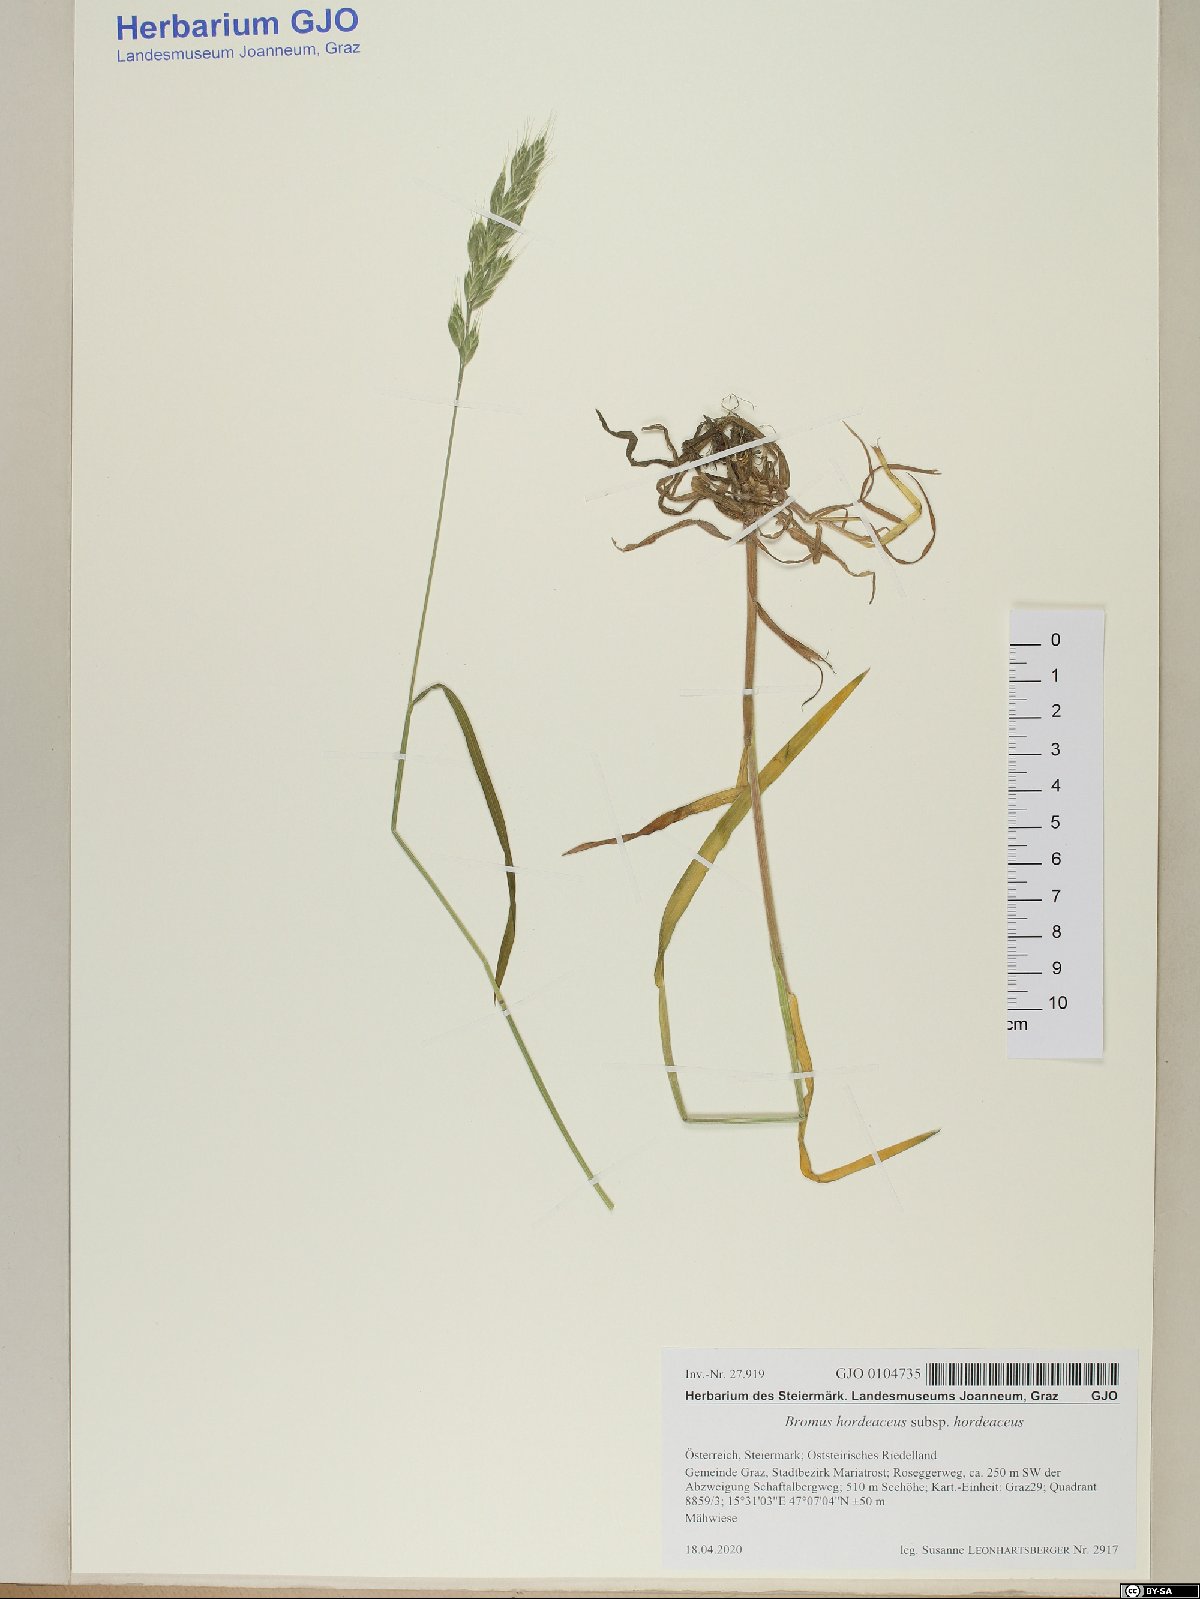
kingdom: Plantae
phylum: Tracheophyta
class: Liliopsida
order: Poales
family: Poaceae
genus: Bromus
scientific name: Bromus hordeaceus
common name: Soft brome
